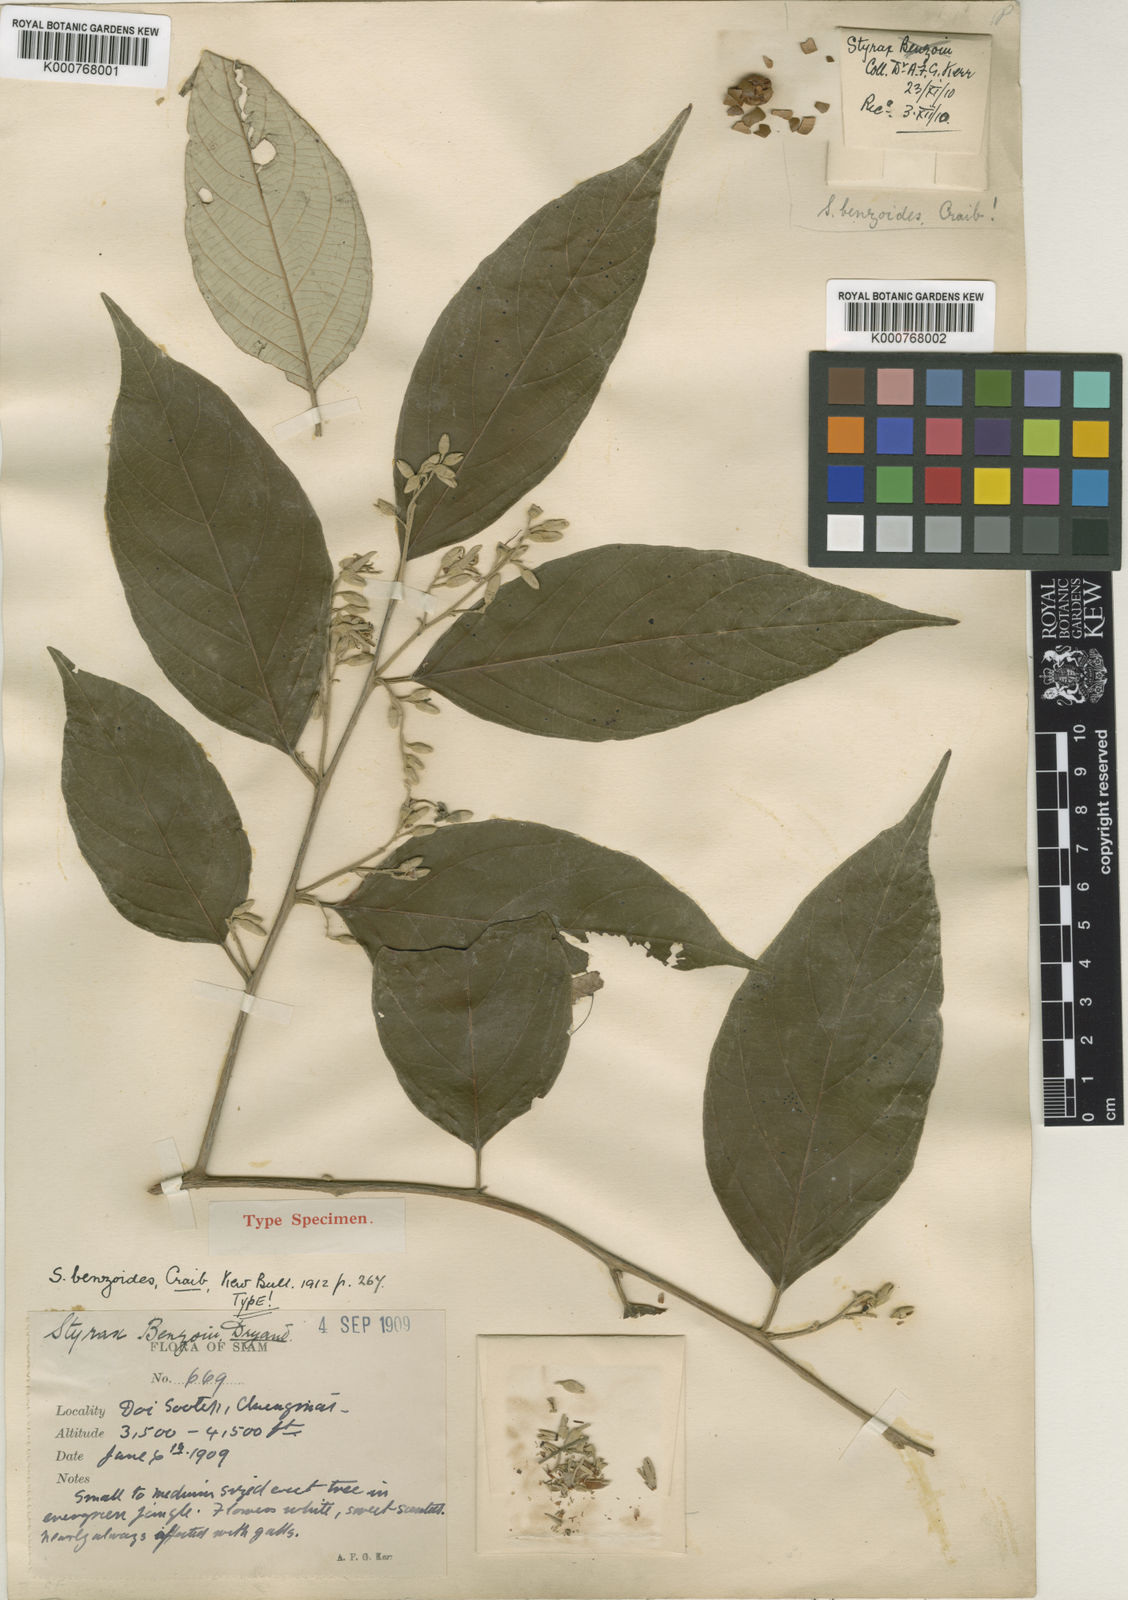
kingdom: Plantae
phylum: Tracheophyta
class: Magnoliopsida
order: Ericales
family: Styracaceae
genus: Styrax
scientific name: Styrax benzoides
